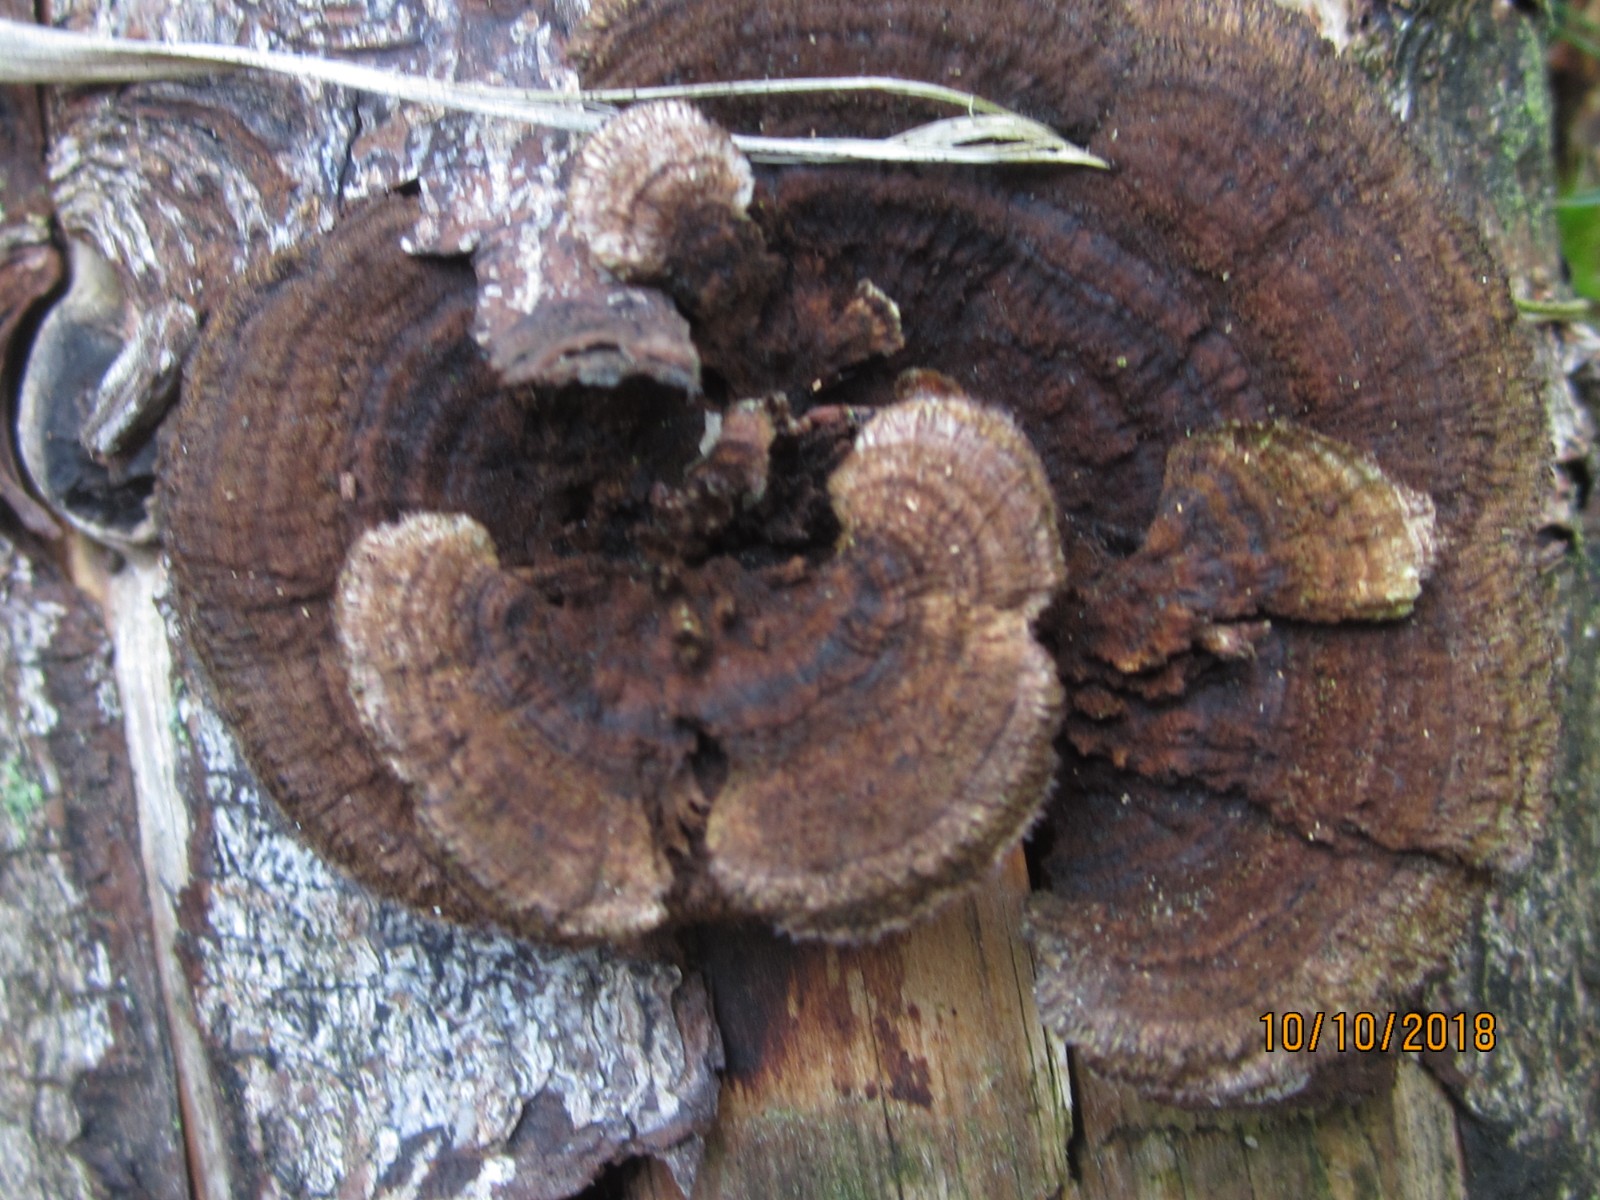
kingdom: Fungi
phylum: Basidiomycota
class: Agaricomycetes
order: Gloeophyllales
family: Gloeophyllaceae
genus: Gloeophyllum
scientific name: Gloeophyllum sepiarium
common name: fyrre-korkhat
